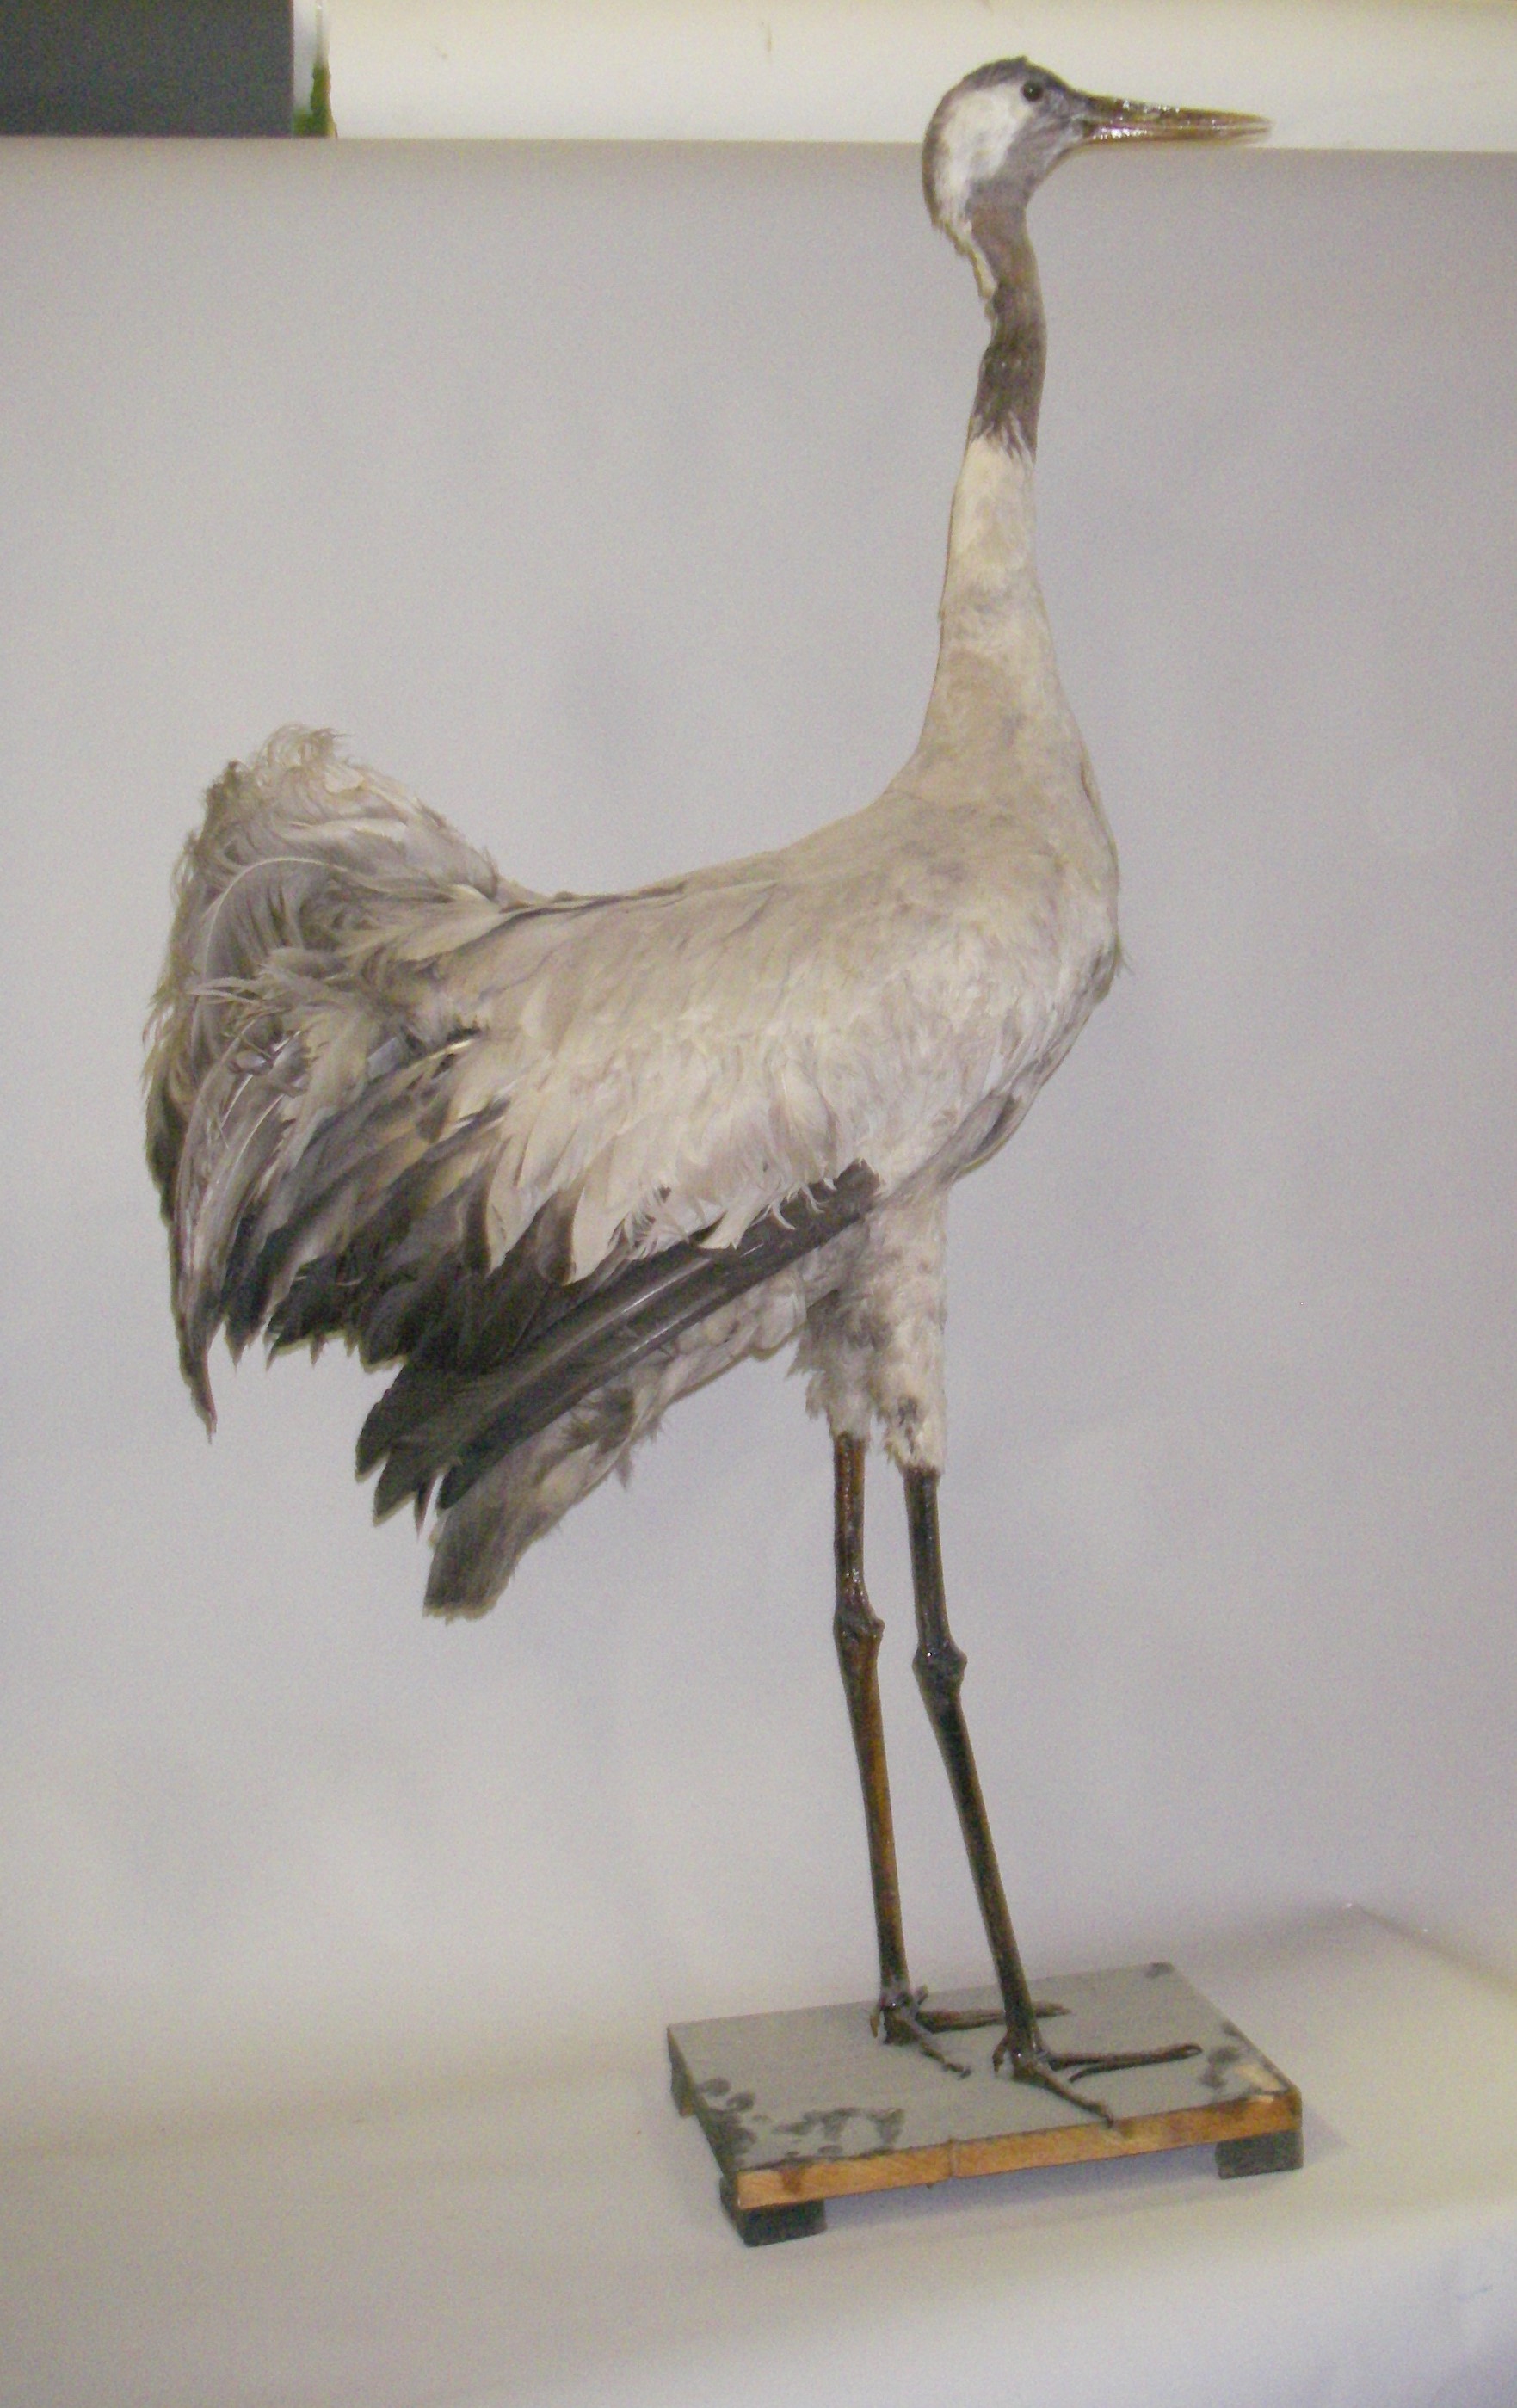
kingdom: Animalia
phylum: Chordata
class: Aves
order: Gruiformes
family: Gruidae
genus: Grus
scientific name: Grus grus
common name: Common crane
